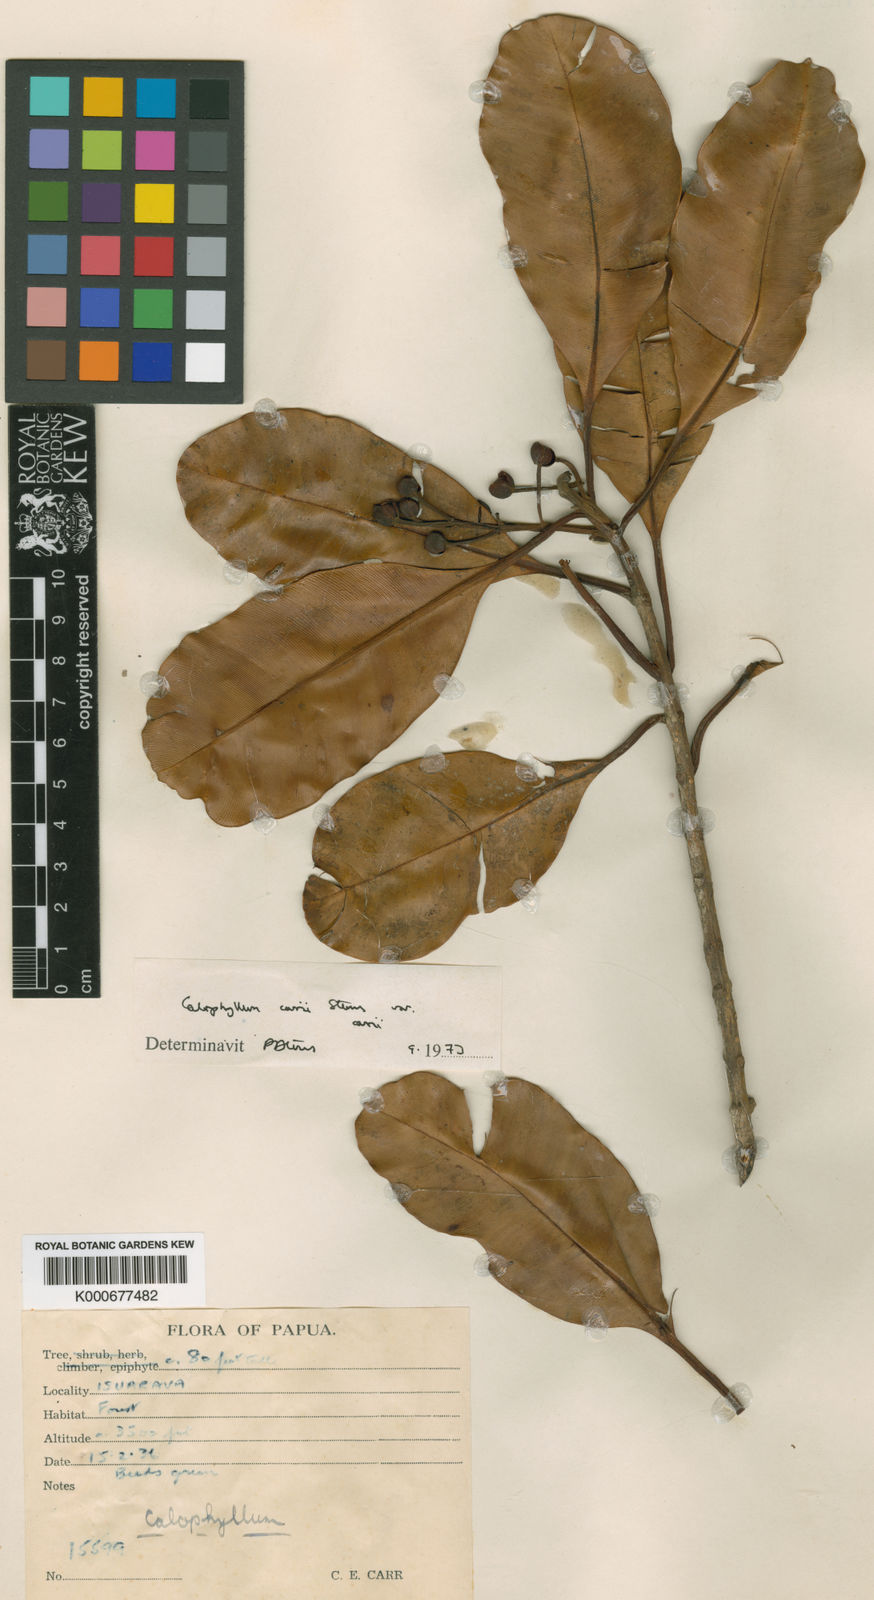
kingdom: Plantae
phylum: Tracheophyta
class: Magnoliopsida
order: Malpighiales
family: Calophyllaceae
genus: Calophyllum
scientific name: Calophyllum carrii
